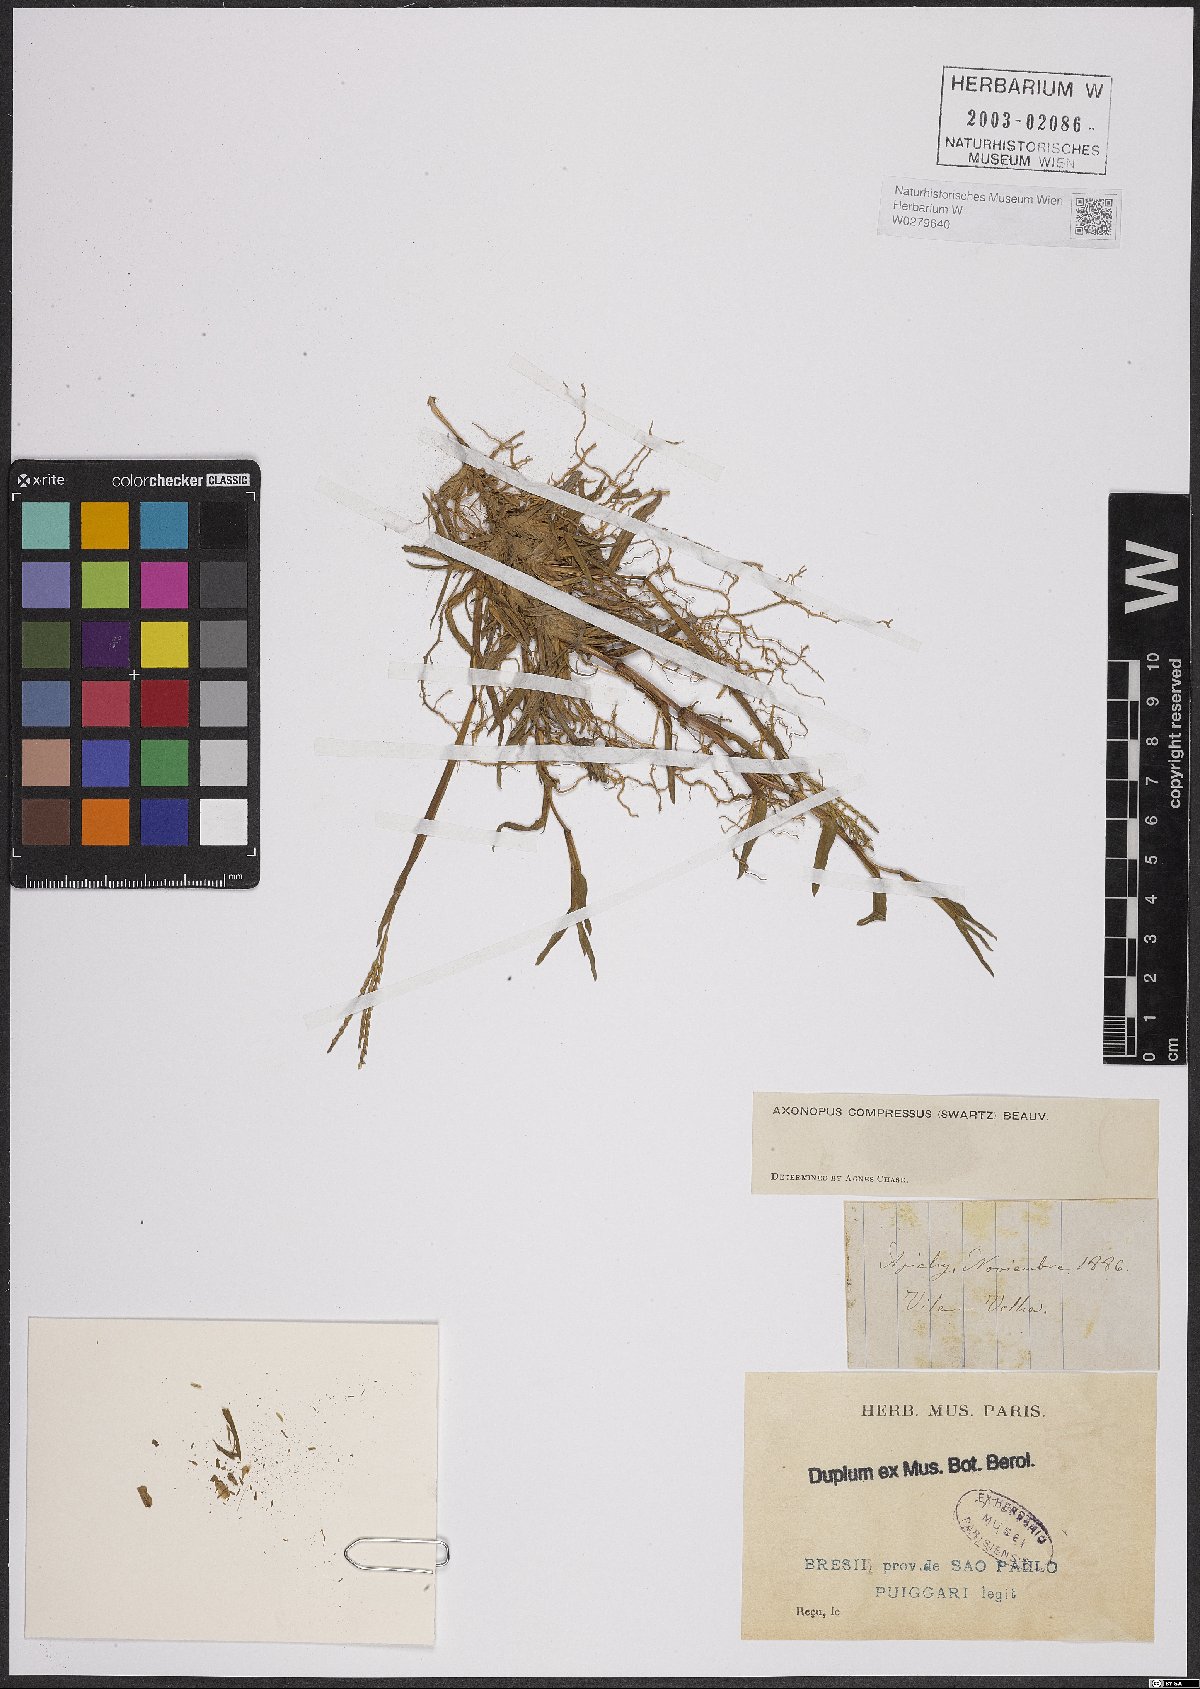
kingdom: Plantae
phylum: Tracheophyta
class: Liliopsida
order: Poales
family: Poaceae
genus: Axonopus
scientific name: Axonopus compressus
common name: American carpet grass
